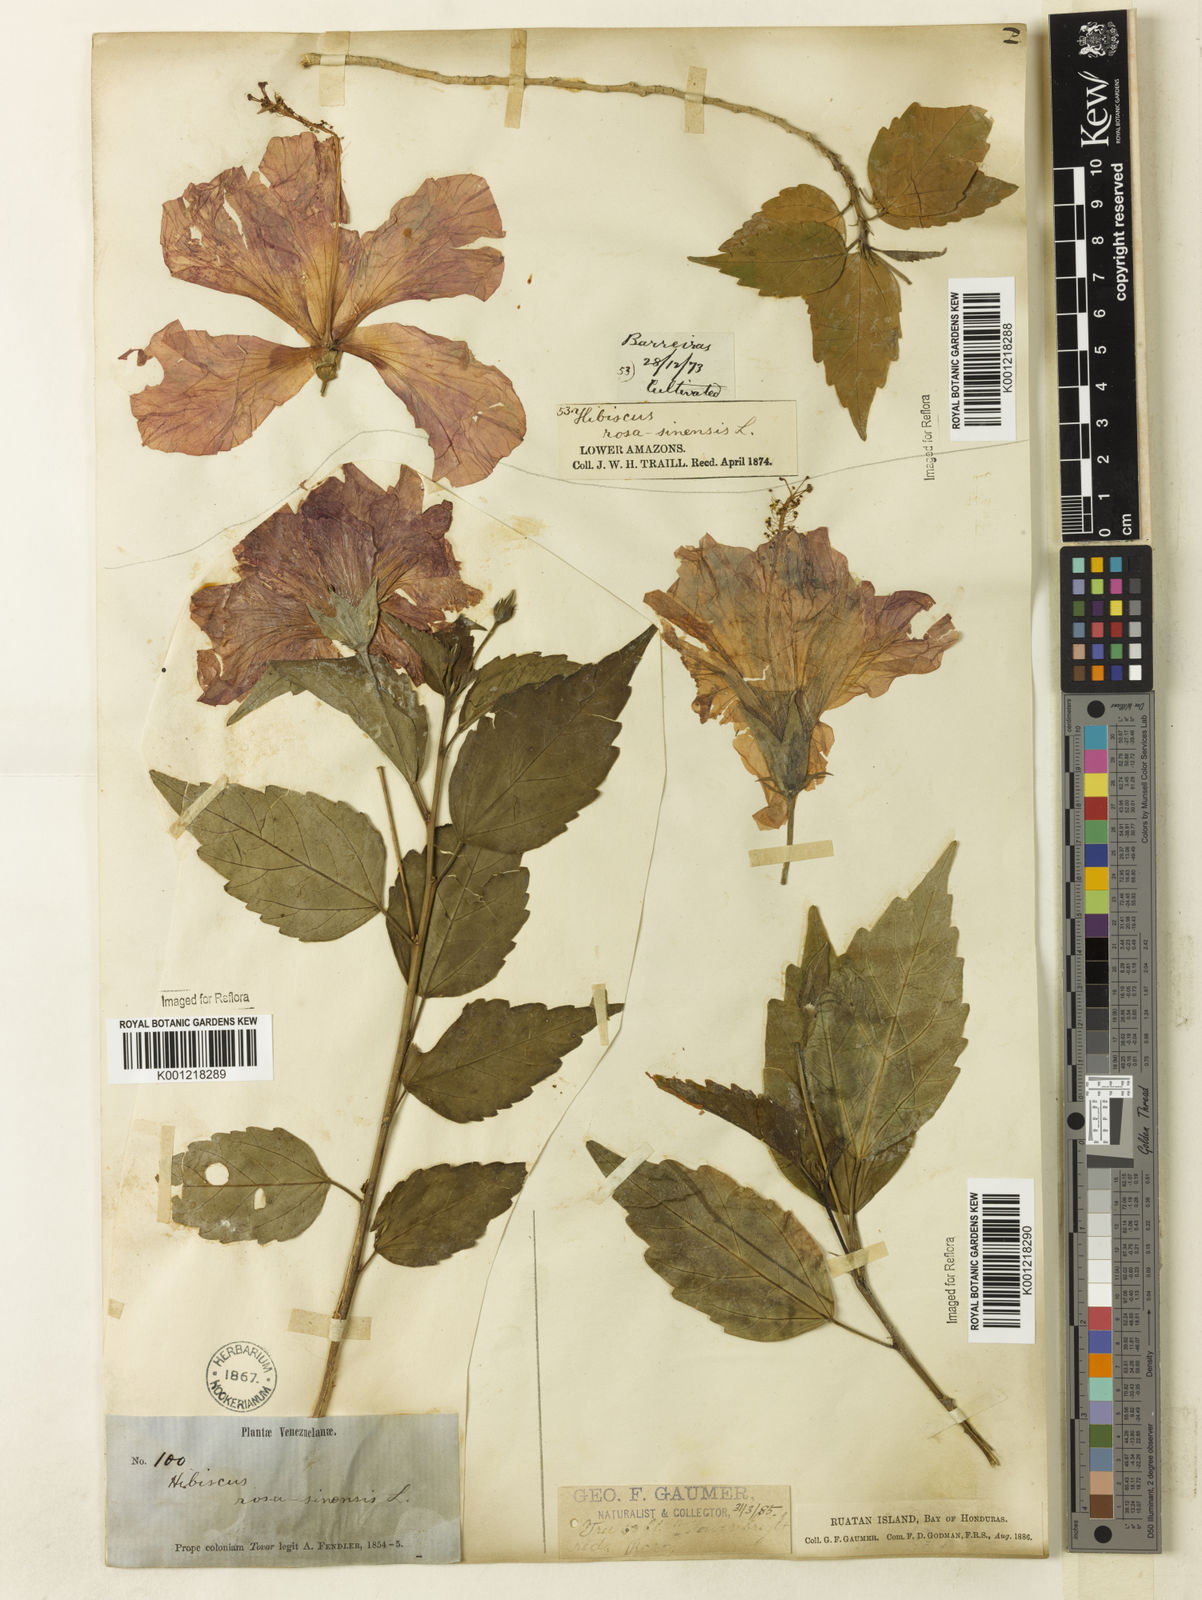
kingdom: Plantae
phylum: Tracheophyta
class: Magnoliopsida
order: Malvales
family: Malvaceae
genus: Hibiscus
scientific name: Hibiscus rosa-sinensis
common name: Hibiscus
